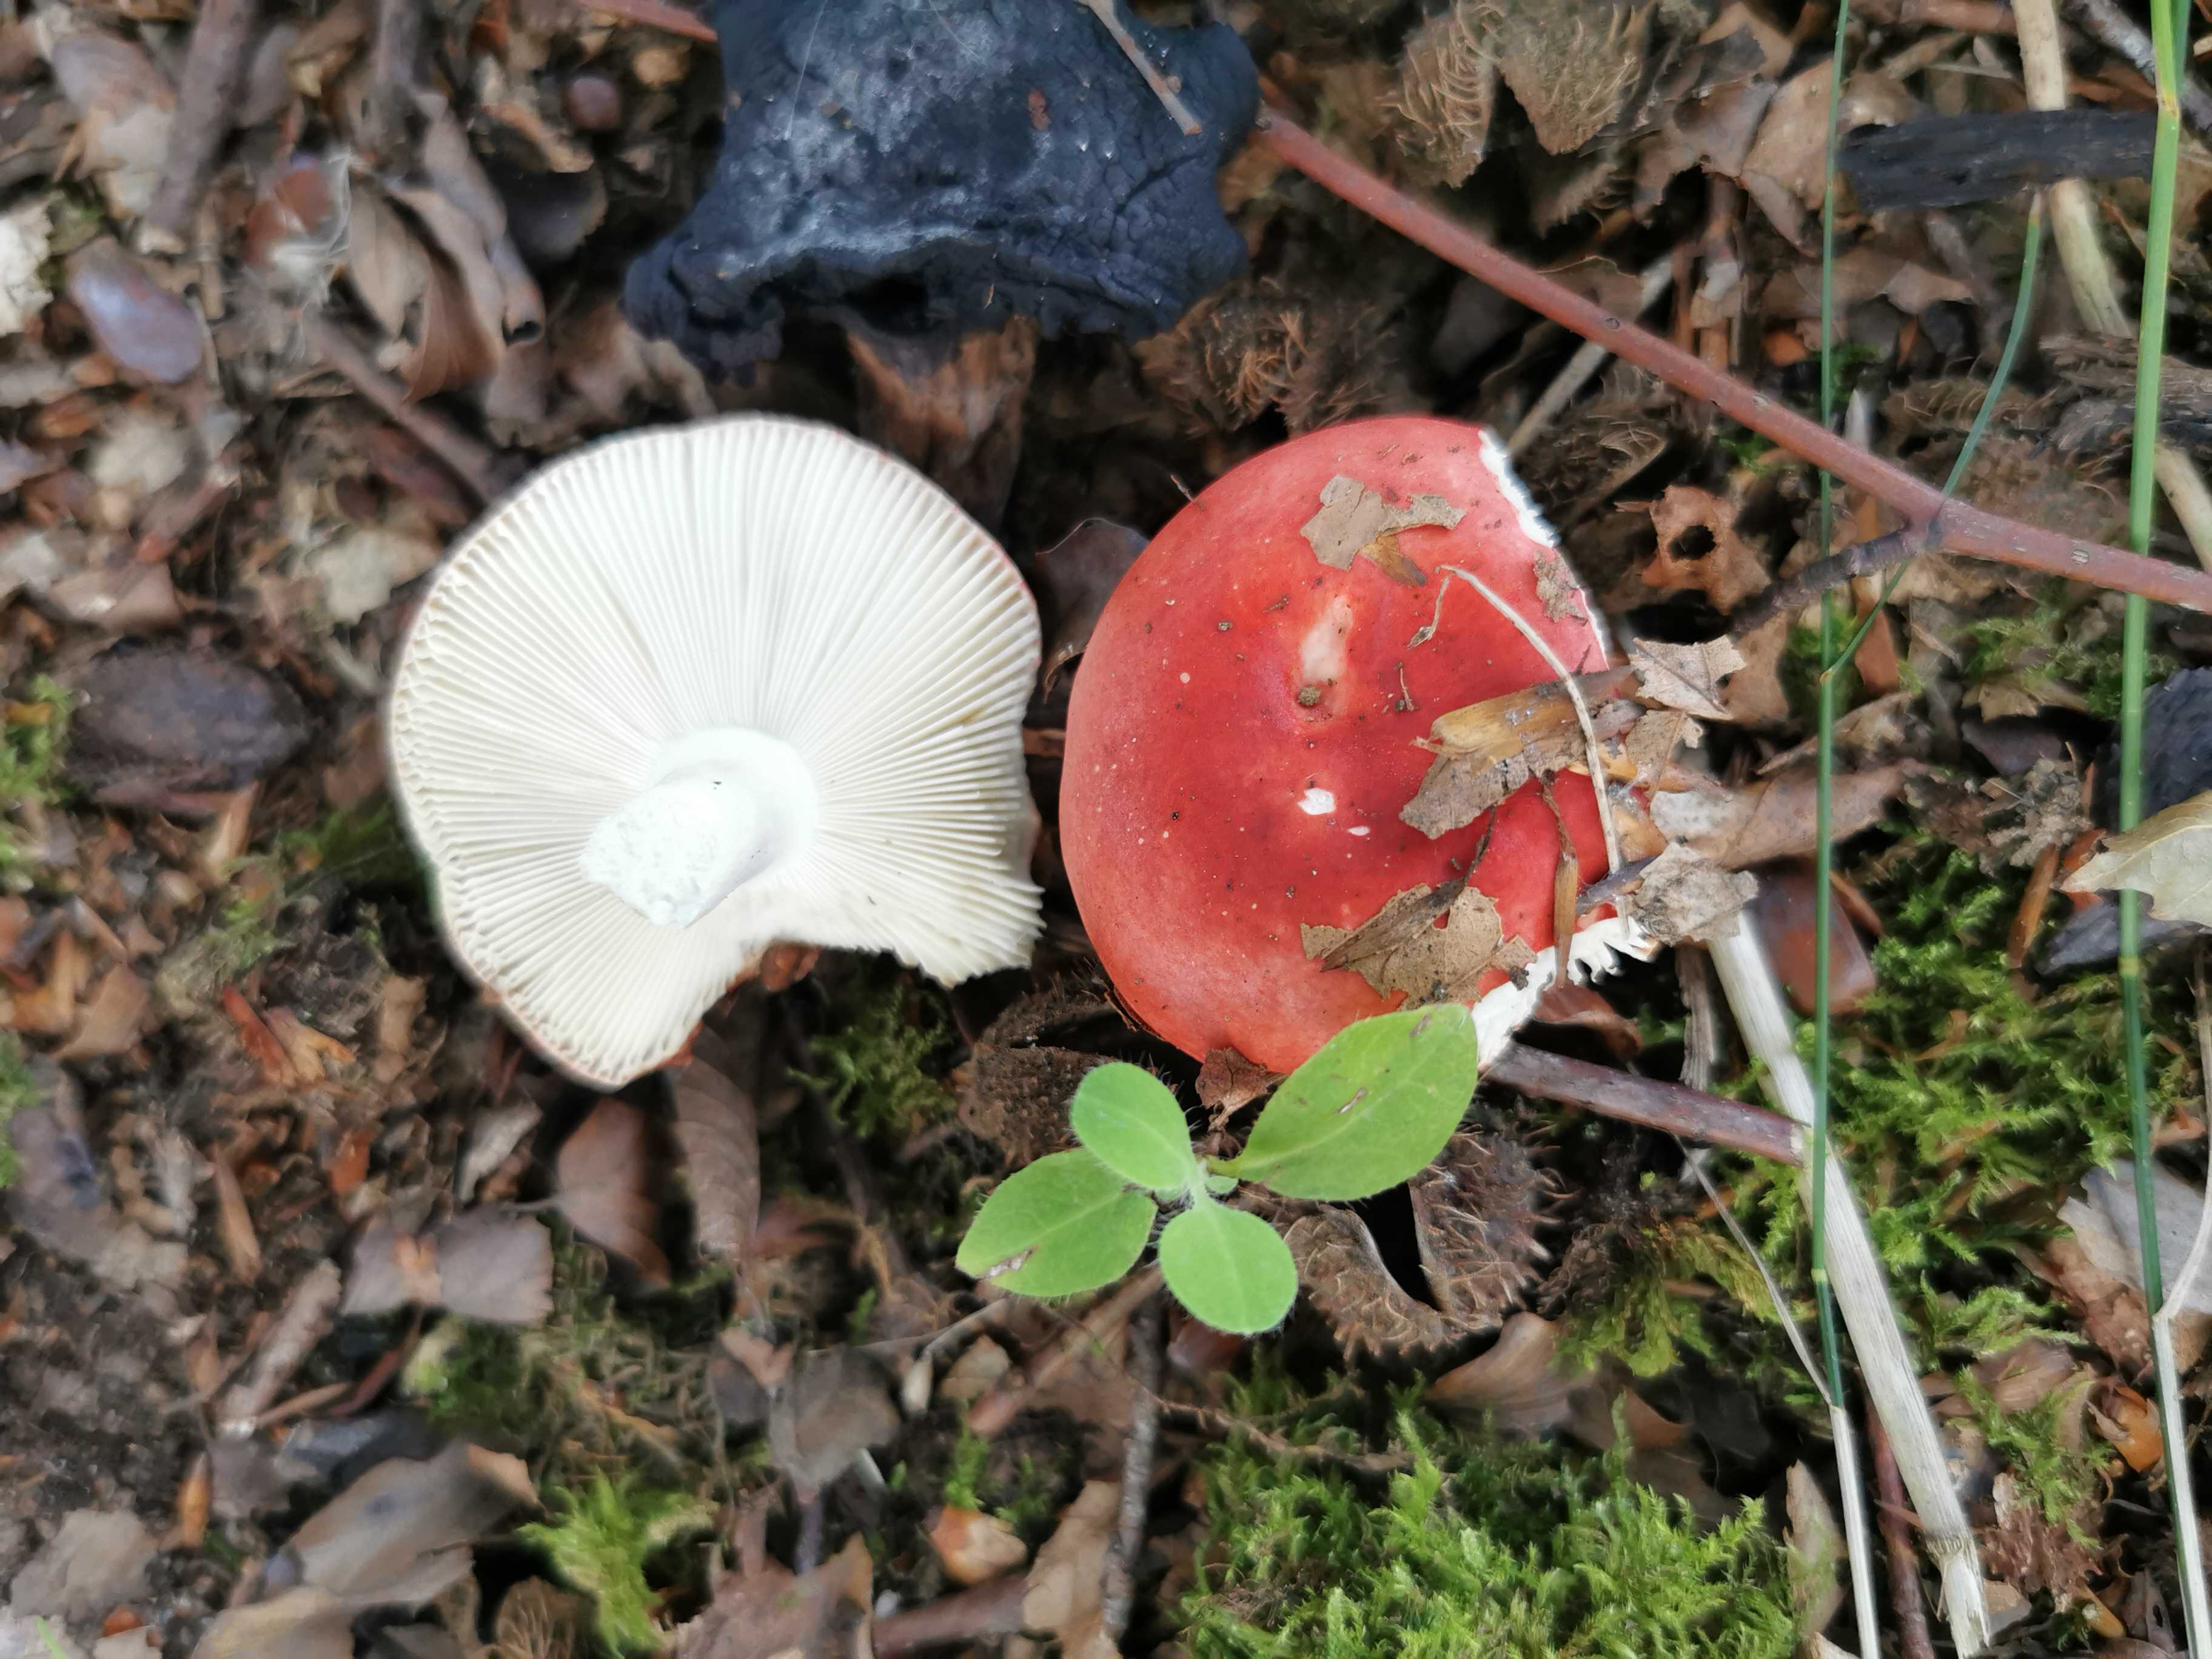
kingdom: Fungi
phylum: Basidiomycota
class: Agaricomycetes
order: Russulales
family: Russulaceae
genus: Russula
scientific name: Russula nobilis
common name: lille gift-skørhat
